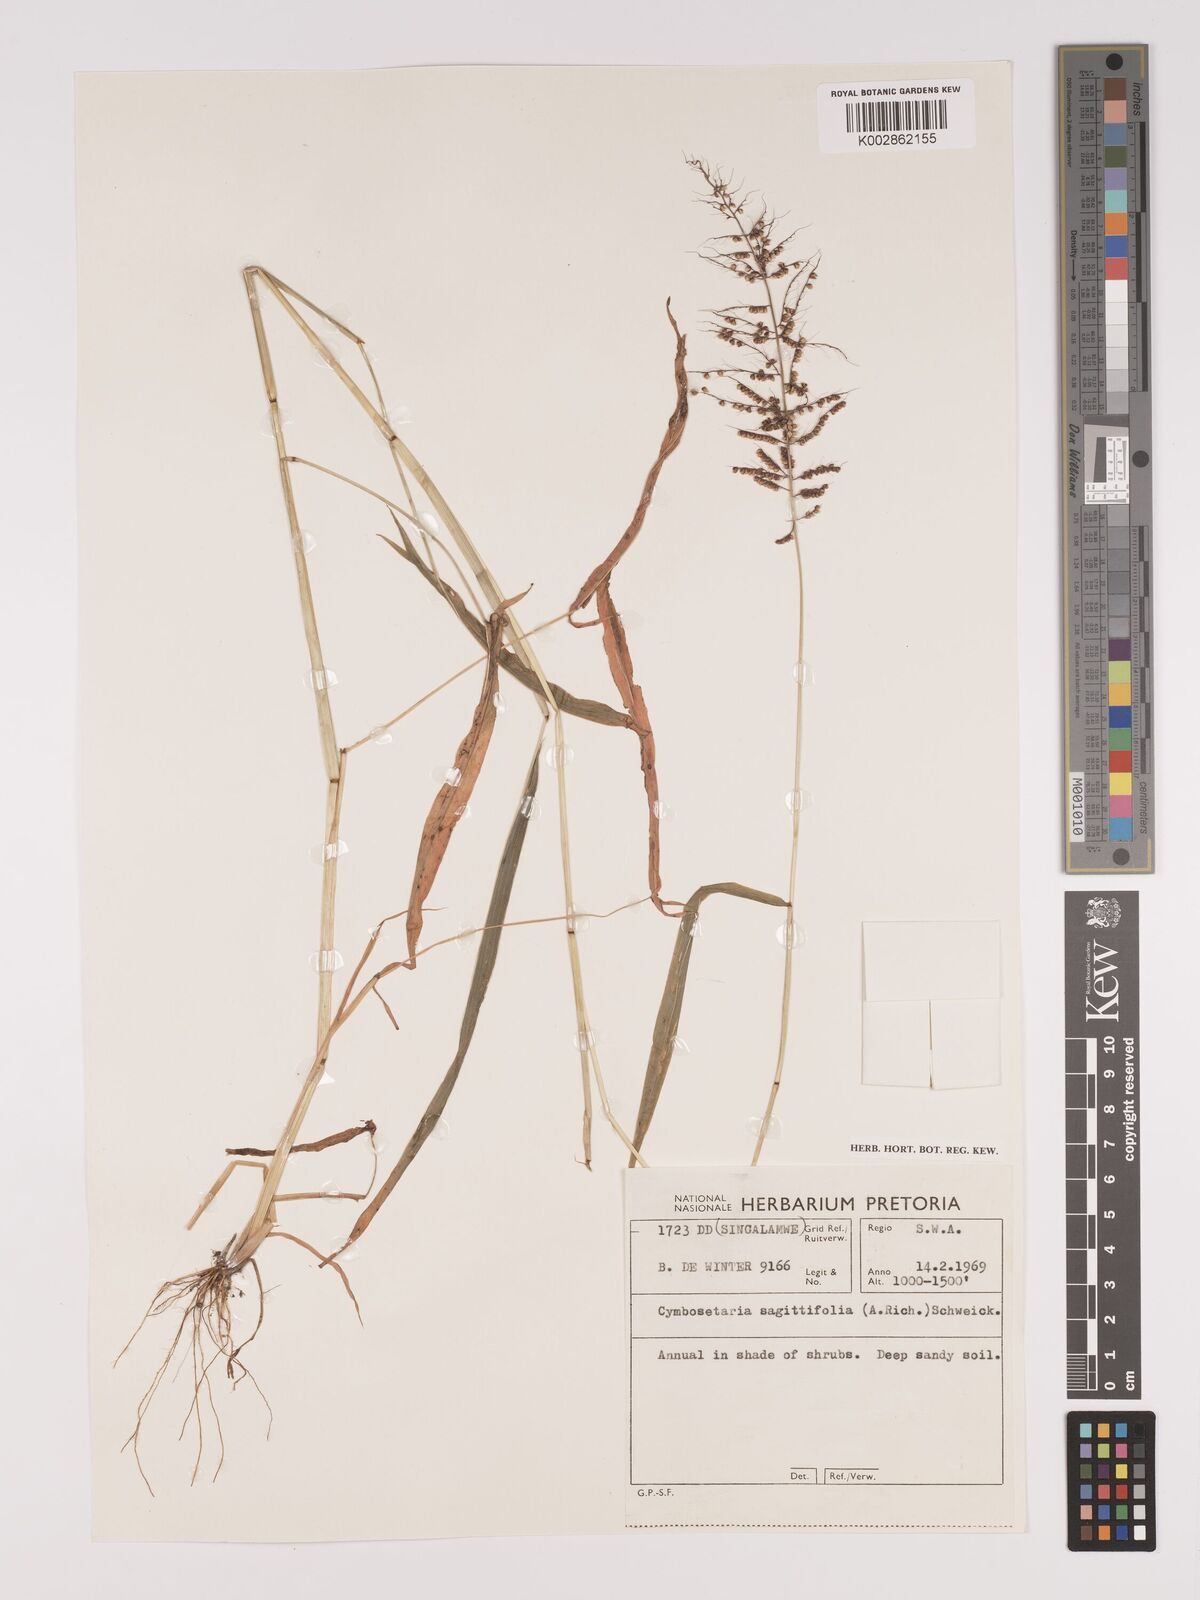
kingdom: Plantae
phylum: Tracheophyta
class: Liliopsida
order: Poales
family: Poaceae
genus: Setaria
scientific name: Setaria sagittifolia
